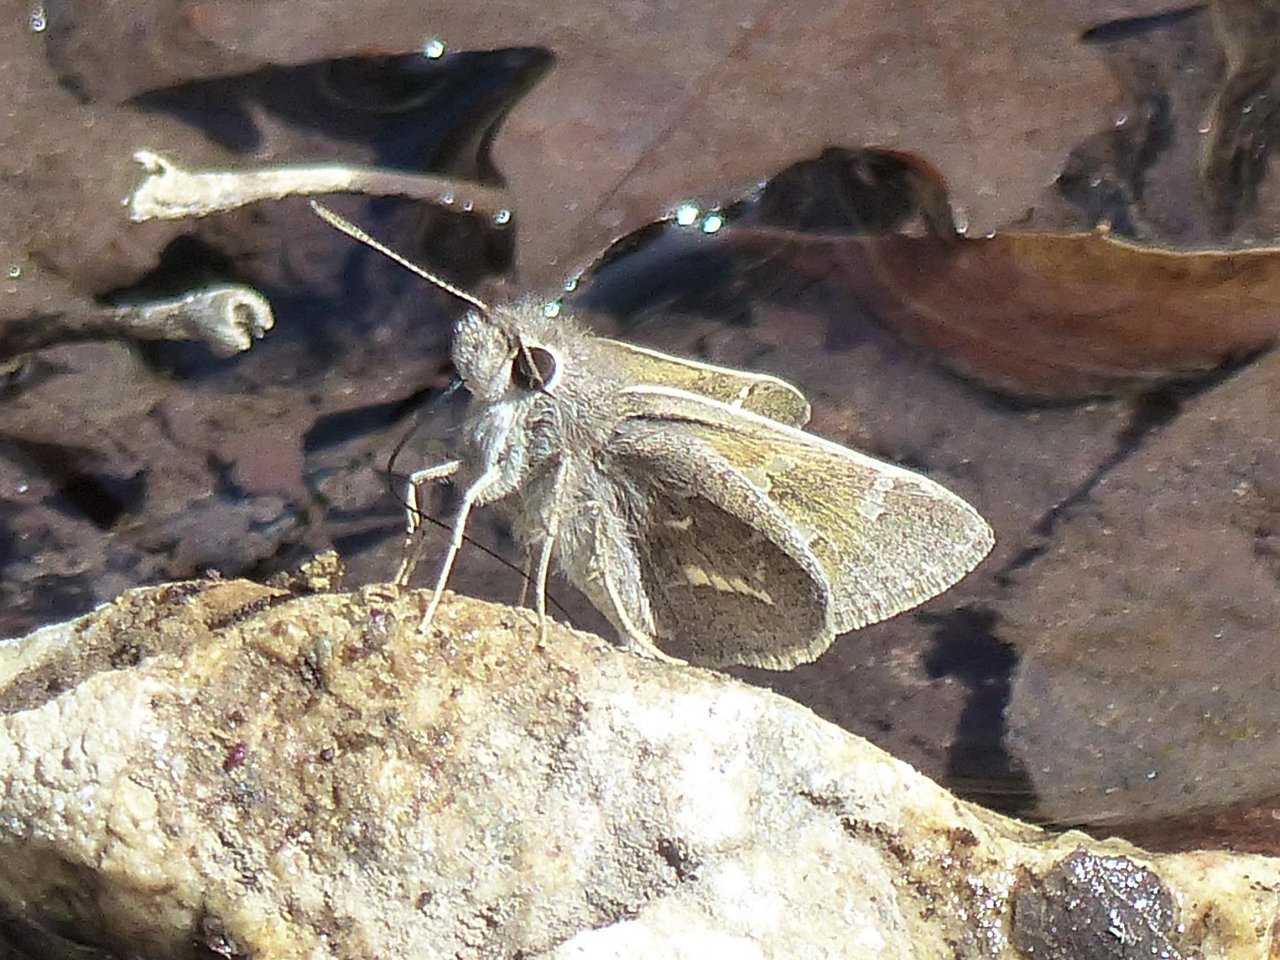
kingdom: Animalia
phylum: Arthropoda
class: Insecta
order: Lepidoptera
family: Hesperiidae
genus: Atrytonopsis
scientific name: Atrytonopsis pittacus
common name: White-barred Skipper
